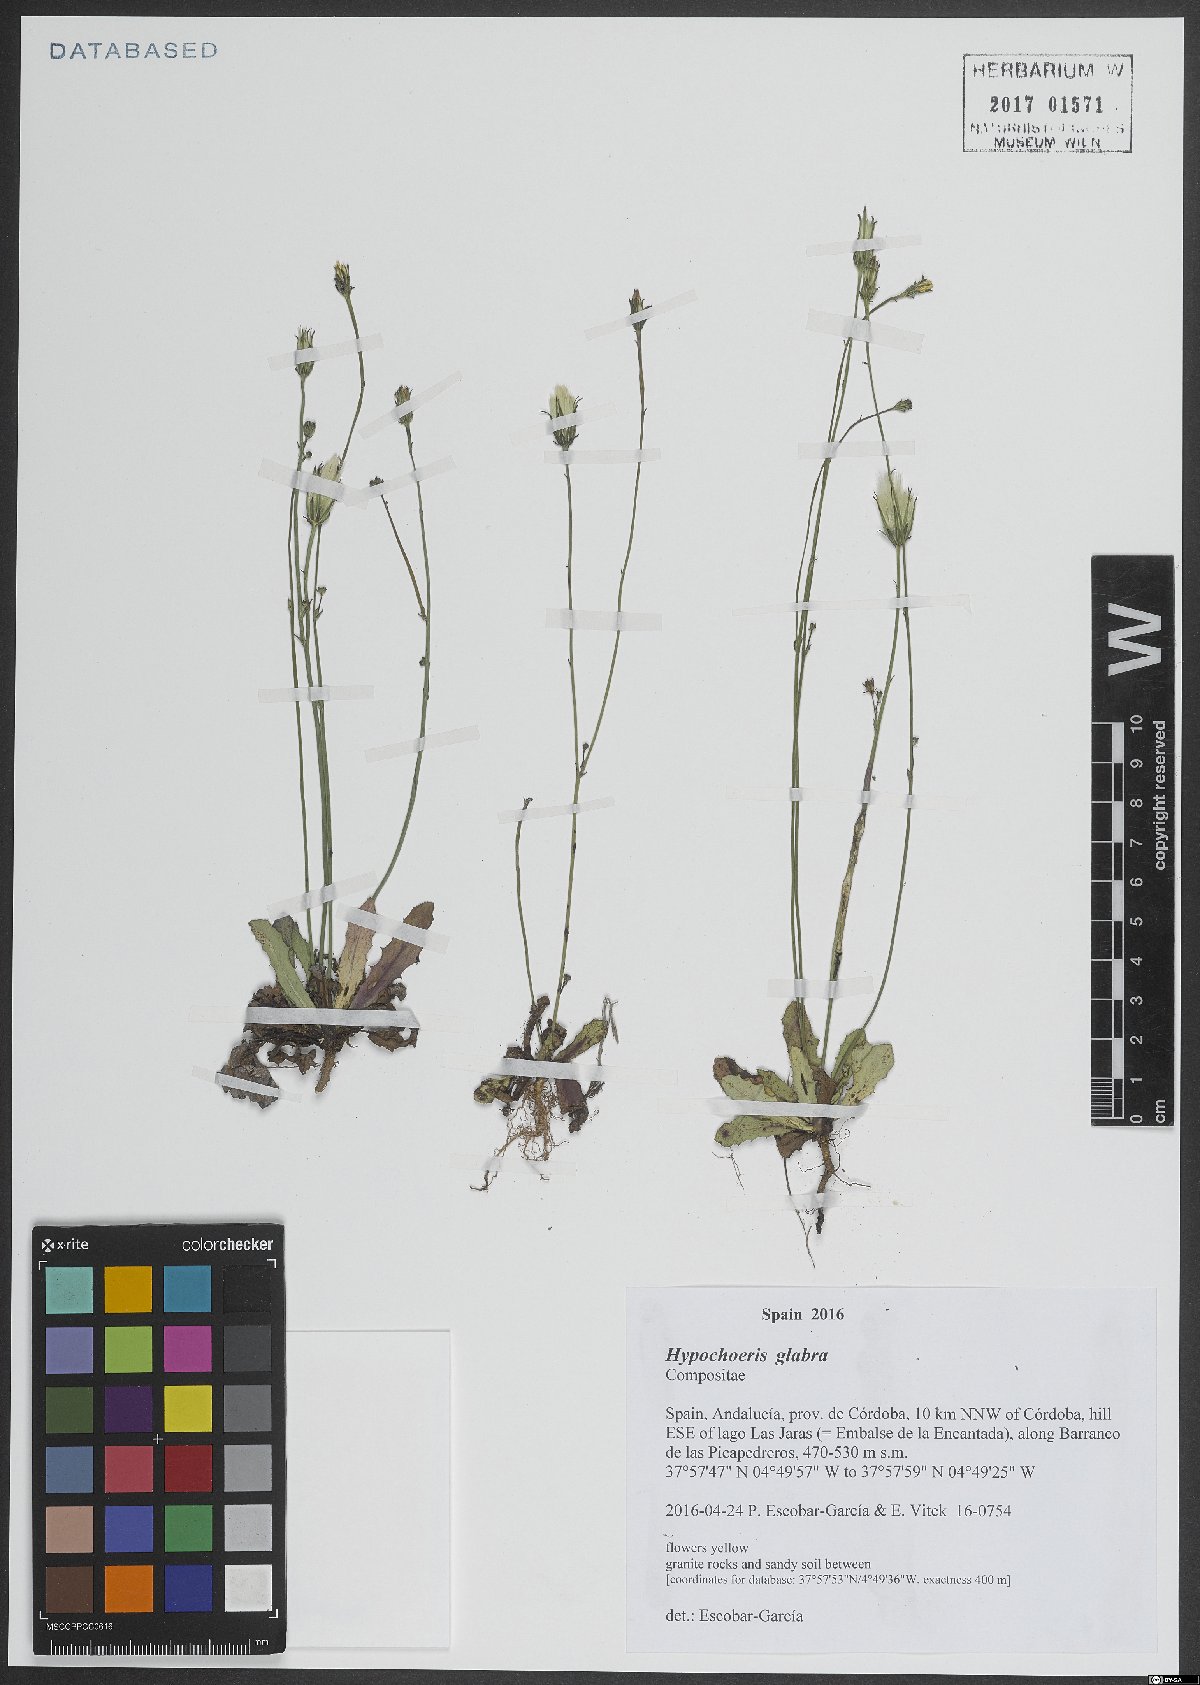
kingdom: Plantae
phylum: Tracheophyta
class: Magnoliopsida
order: Asterales
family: Asteraceae
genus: Hypochaeris
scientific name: Hypochaeris glabra
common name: Smooth catsear
